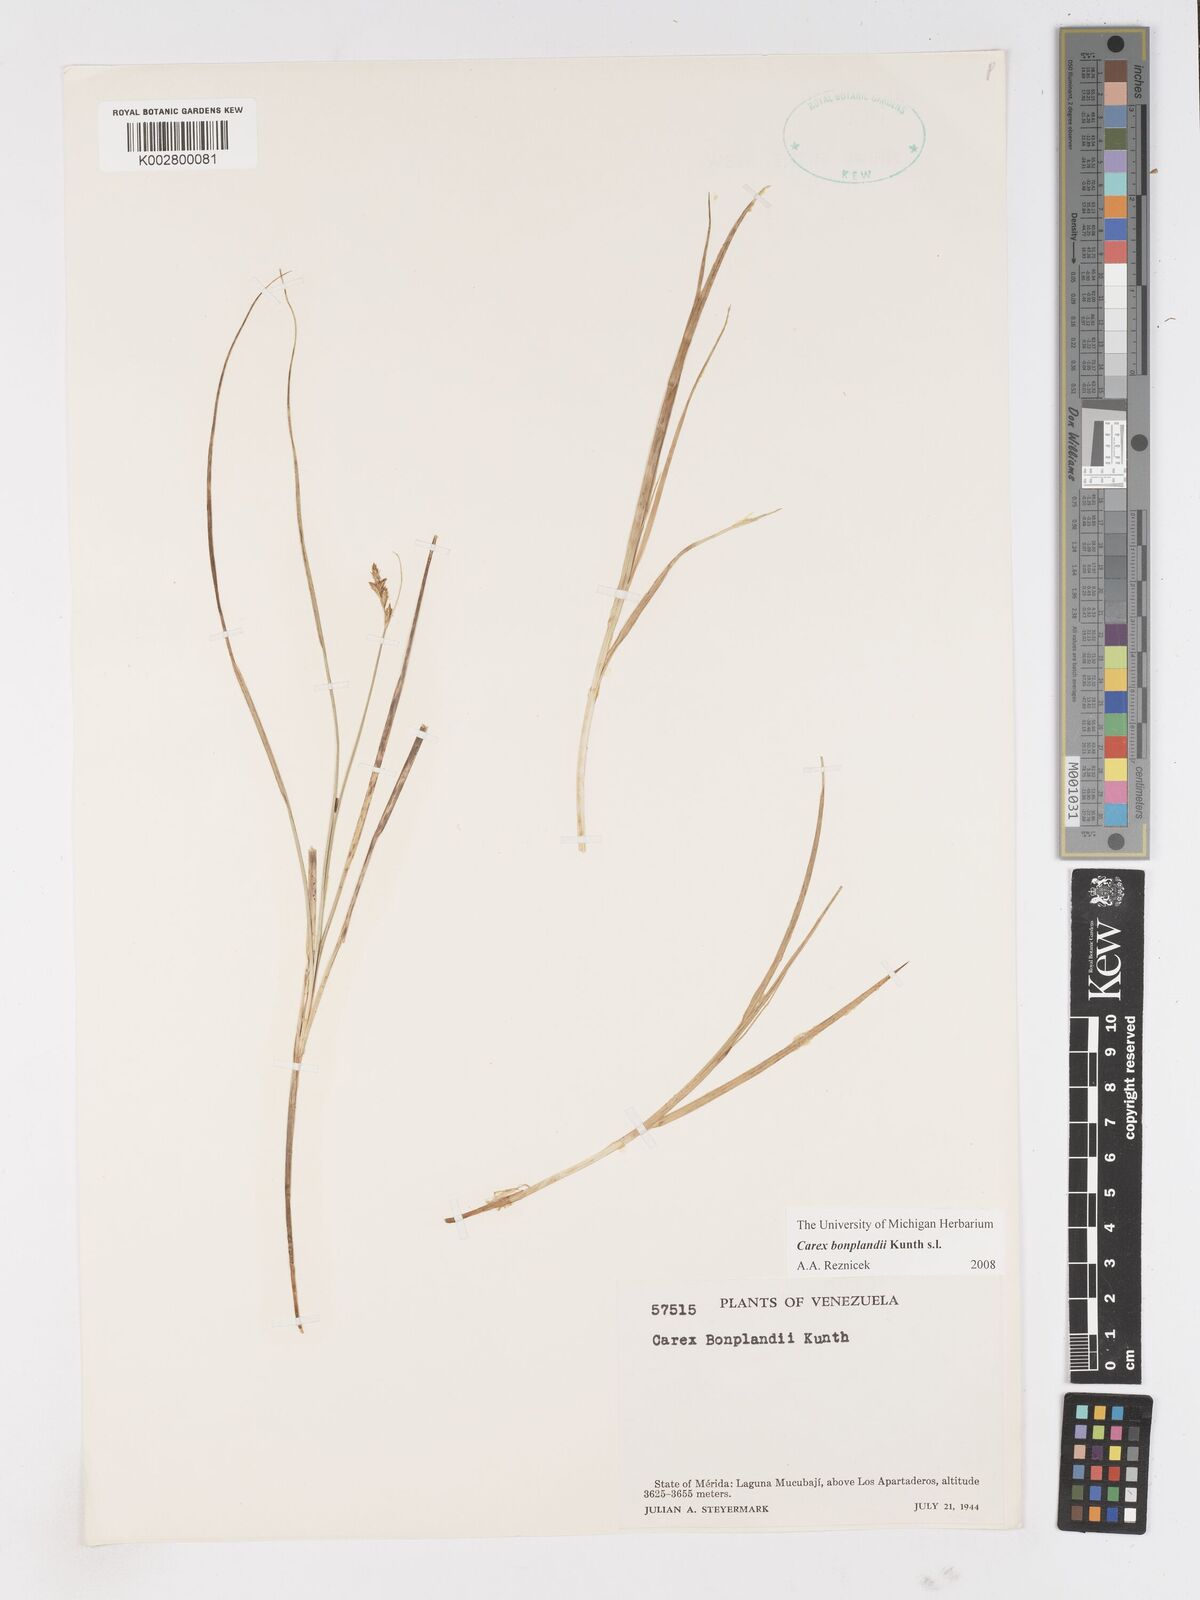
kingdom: Plantae
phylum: Tracheophyta
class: Liliopsida
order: Poales
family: Cyperaceae
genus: Carex
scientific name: Carex bonplandii
